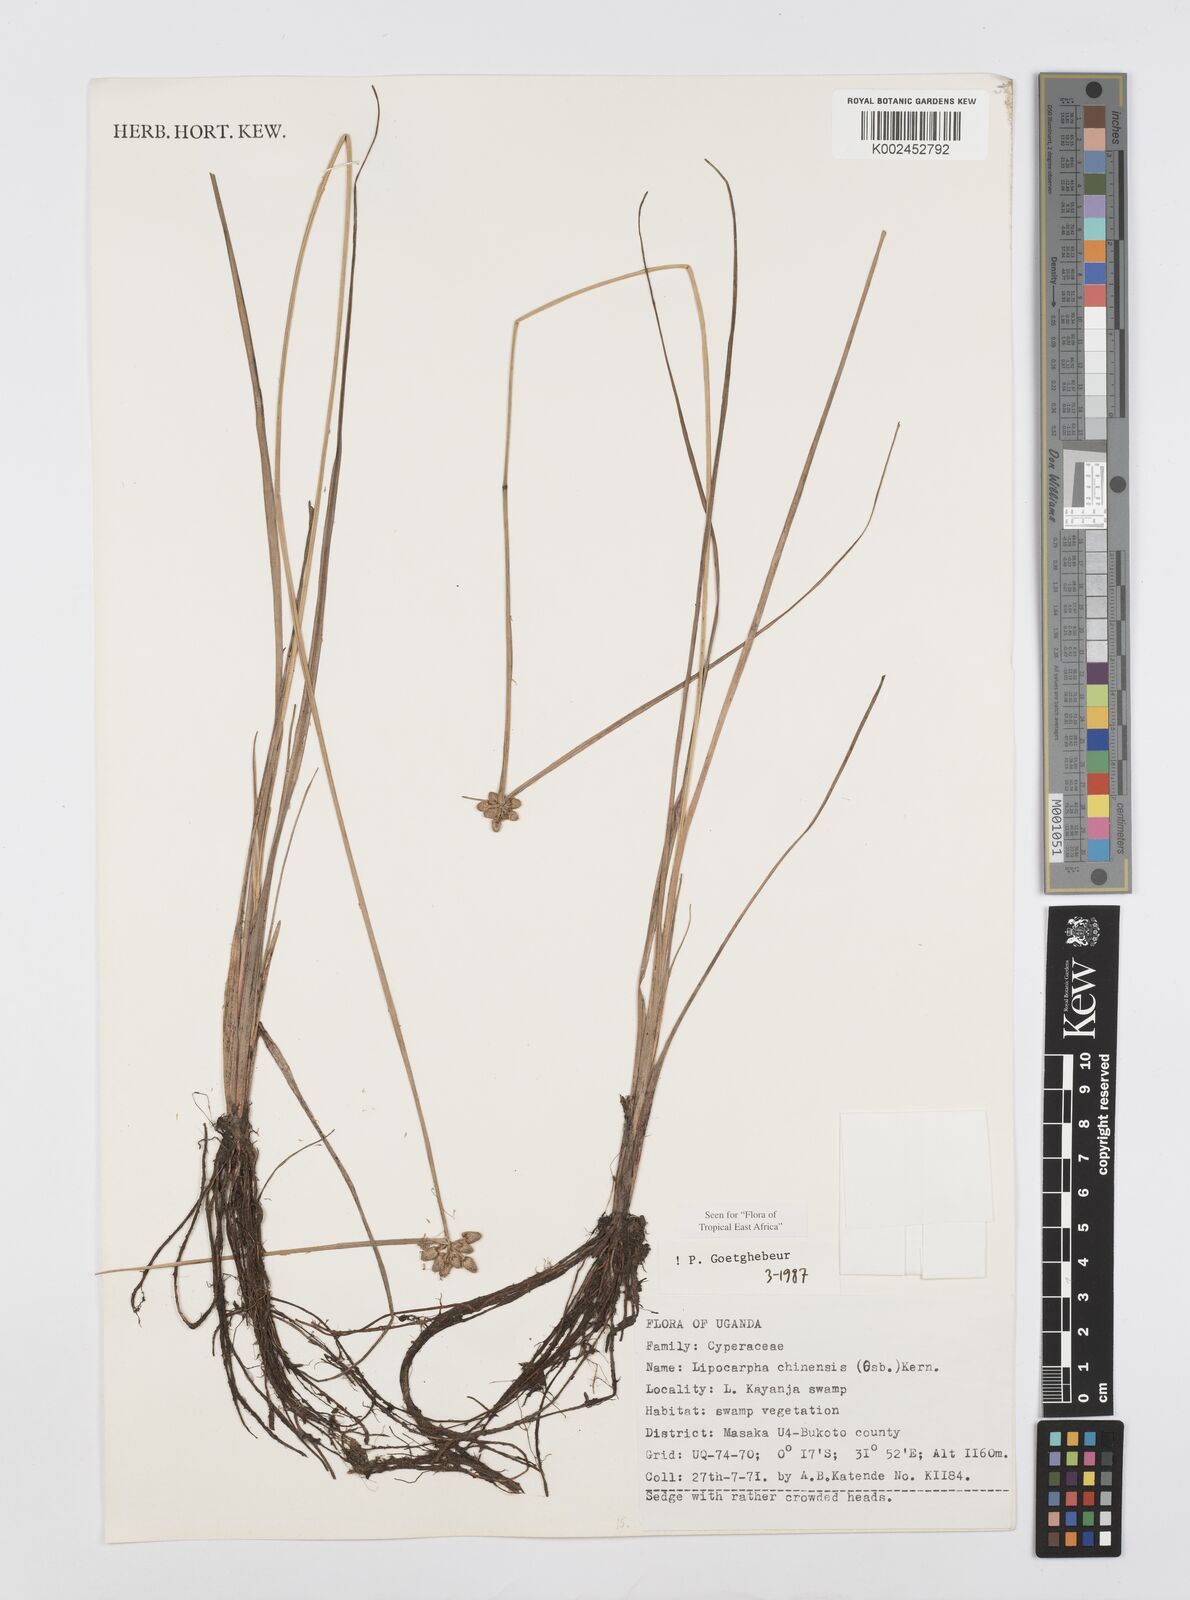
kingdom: Plantae
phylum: Tracheophyta
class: Liliopsida
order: Poales
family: Cyperaceae
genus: Cyperus
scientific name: Cyperus albescens
